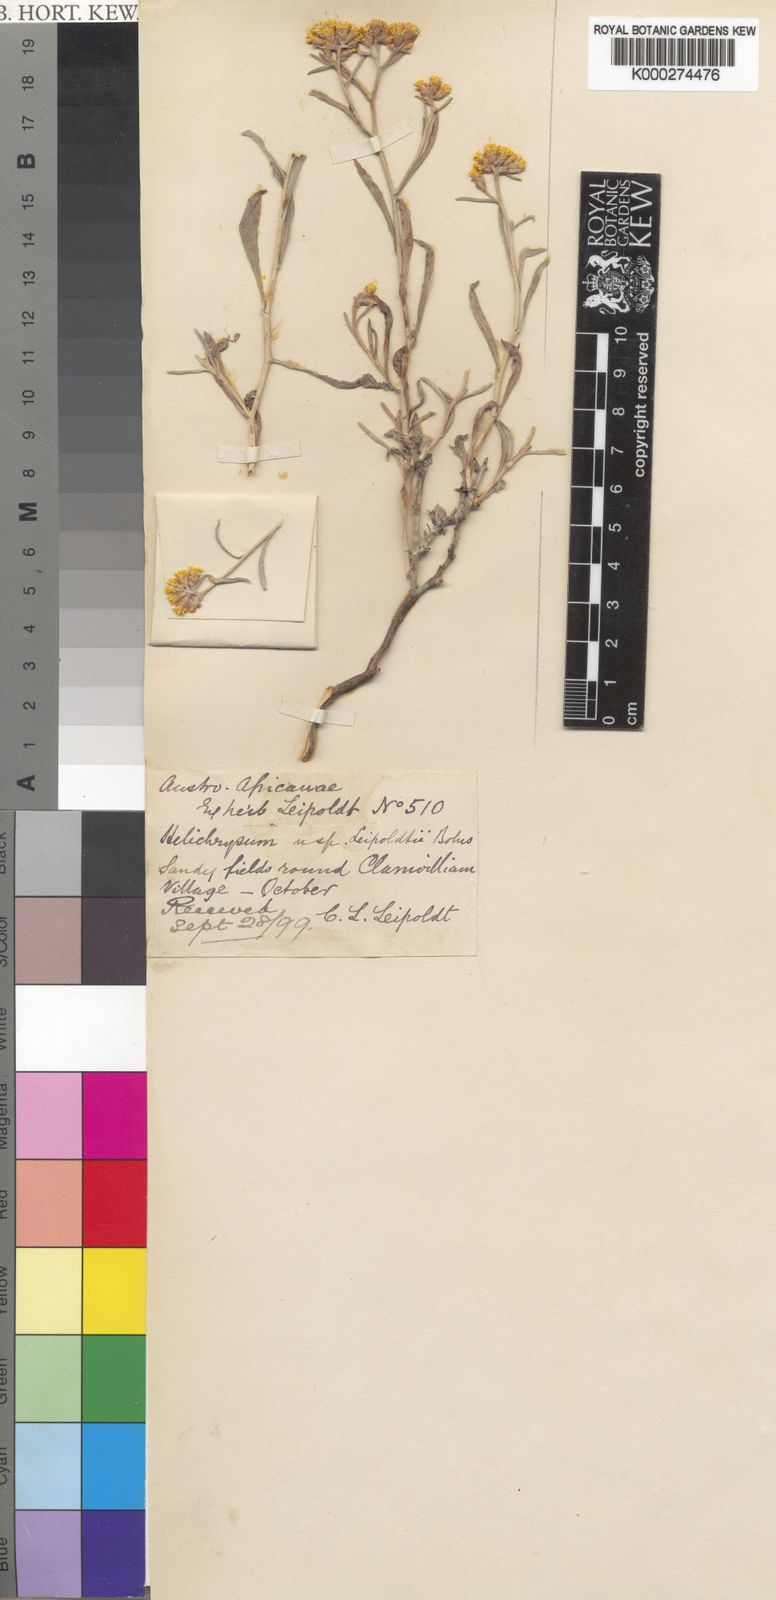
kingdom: Plantae
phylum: Tracheophyta
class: Magnoliopsida
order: Asterales
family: Asteraceae
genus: Helichrysum
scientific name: Helichrysum cylindriflorum
